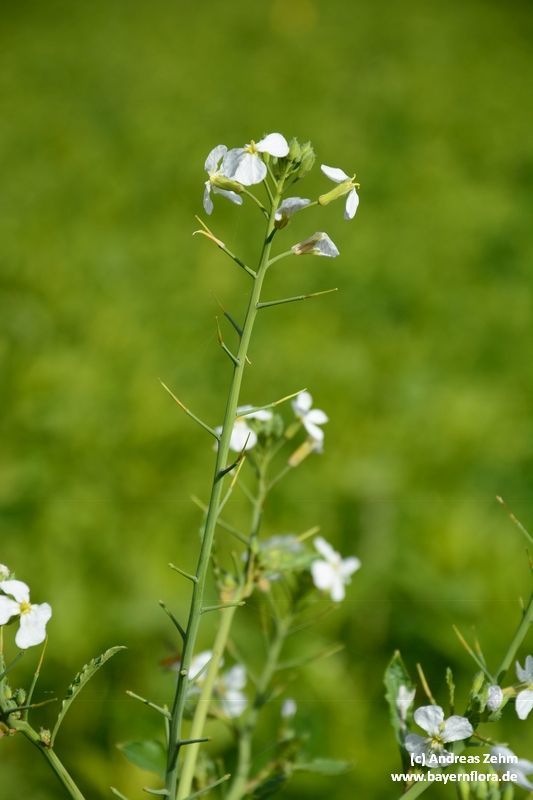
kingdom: Plantae
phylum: Tracheophyta
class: Magnoliopsida
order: Brassicales
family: Brassicaceae
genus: Raphanus
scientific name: Raphanus sativus
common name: Cultivated radish
